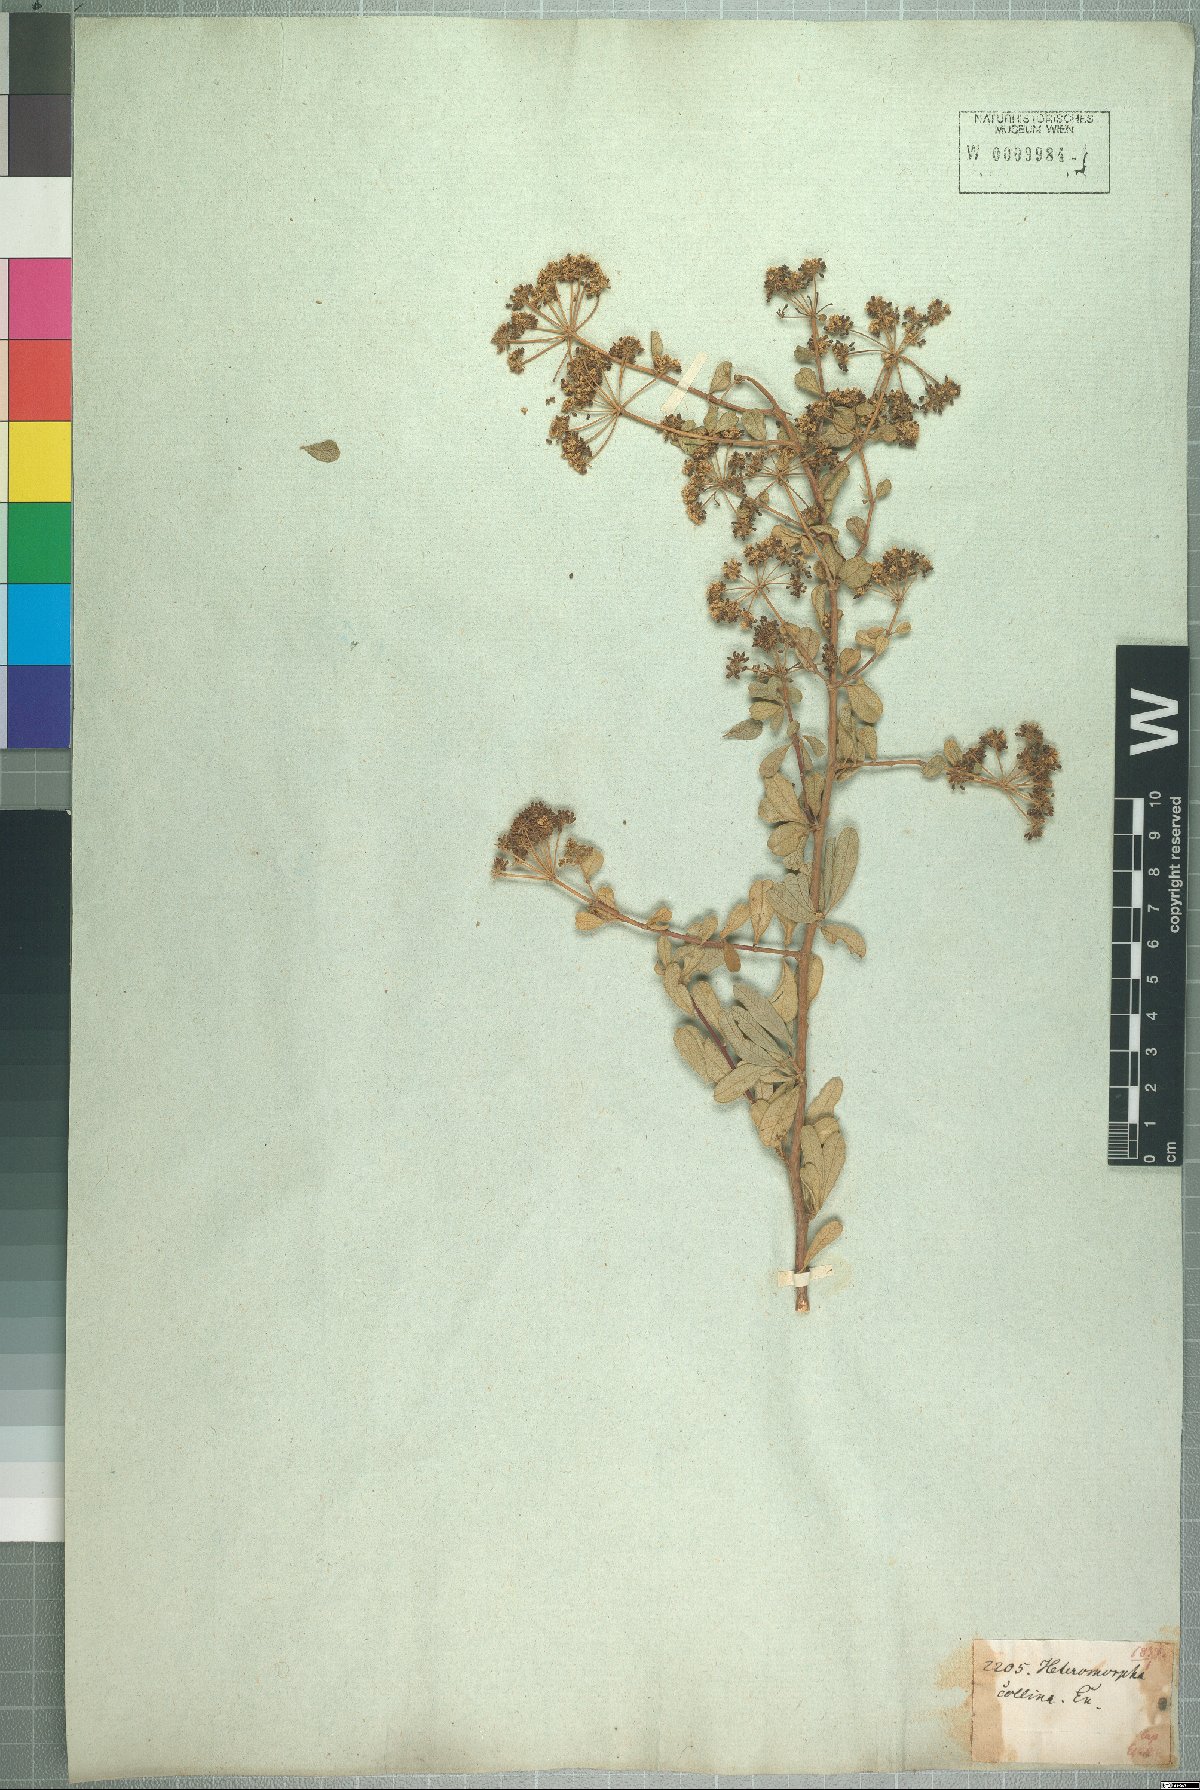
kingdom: Plantae
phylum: Tracheophyta
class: Magnoliopsida
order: Apiales
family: Apiaceae
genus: Heteromorpha
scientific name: Heteromorpha arborescens
